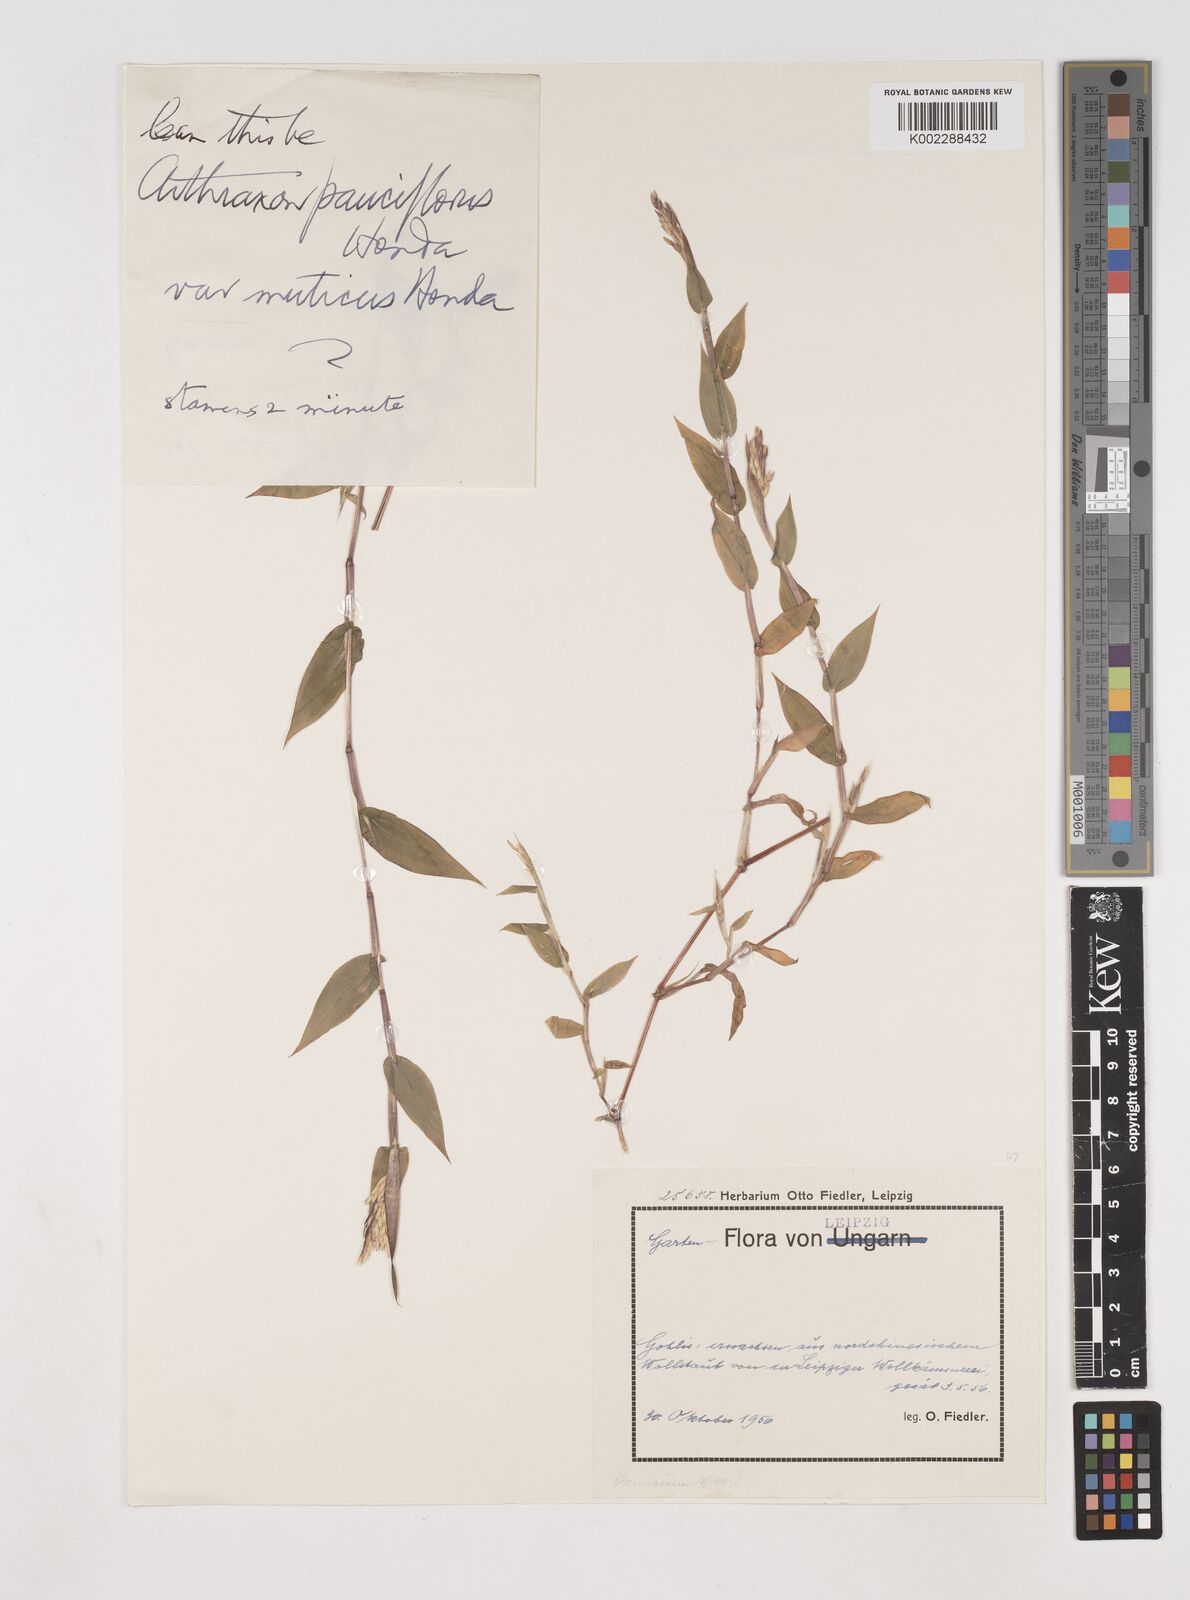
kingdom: Plantae
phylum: Tracheophyta
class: Liliopsida
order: Poales
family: Poaceae
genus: Arthraxon
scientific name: Arthraxon
